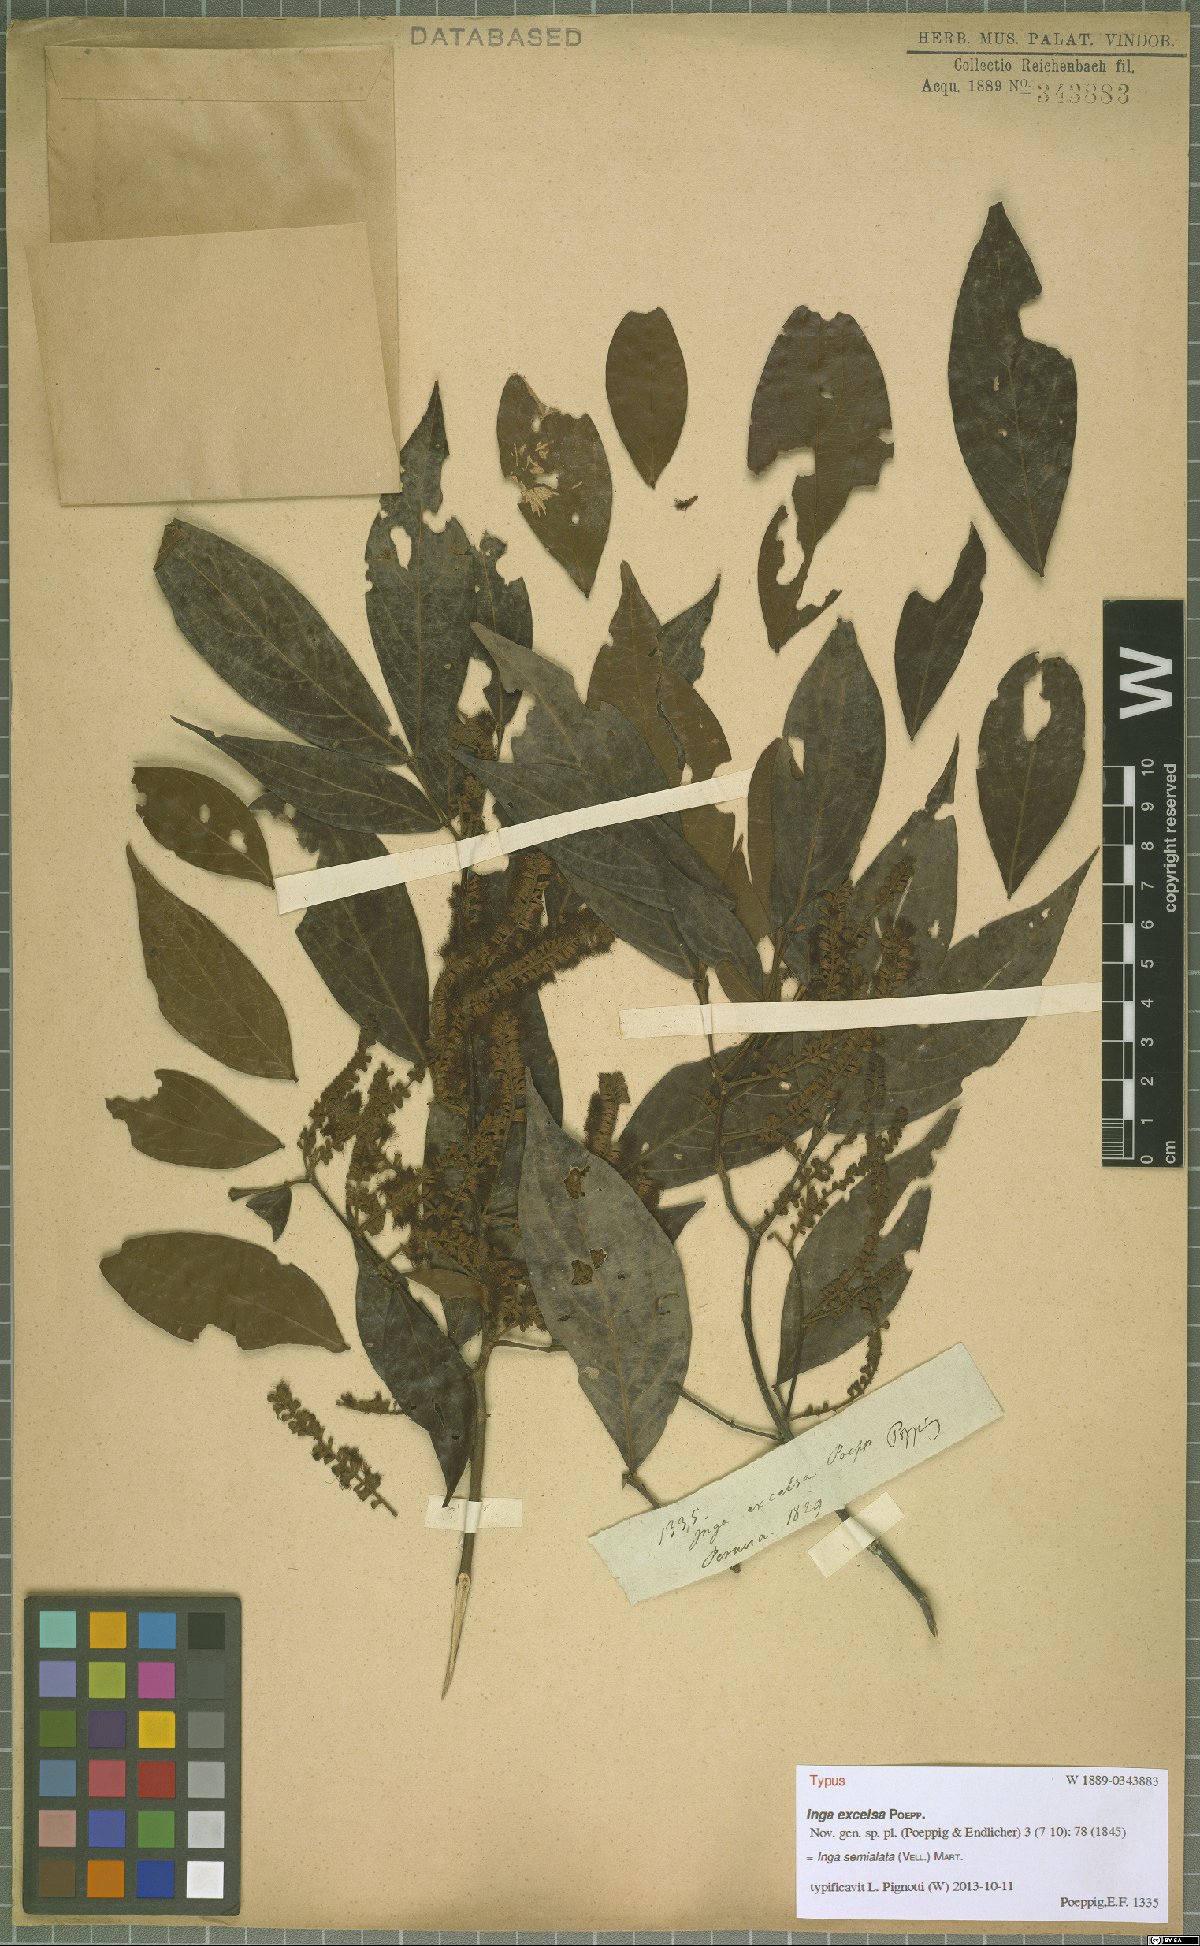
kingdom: Plantae
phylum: Tracheophyta
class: Magnoliopsida
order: Fabales
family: Fabaceae
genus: Inga
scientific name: Inga marginata
